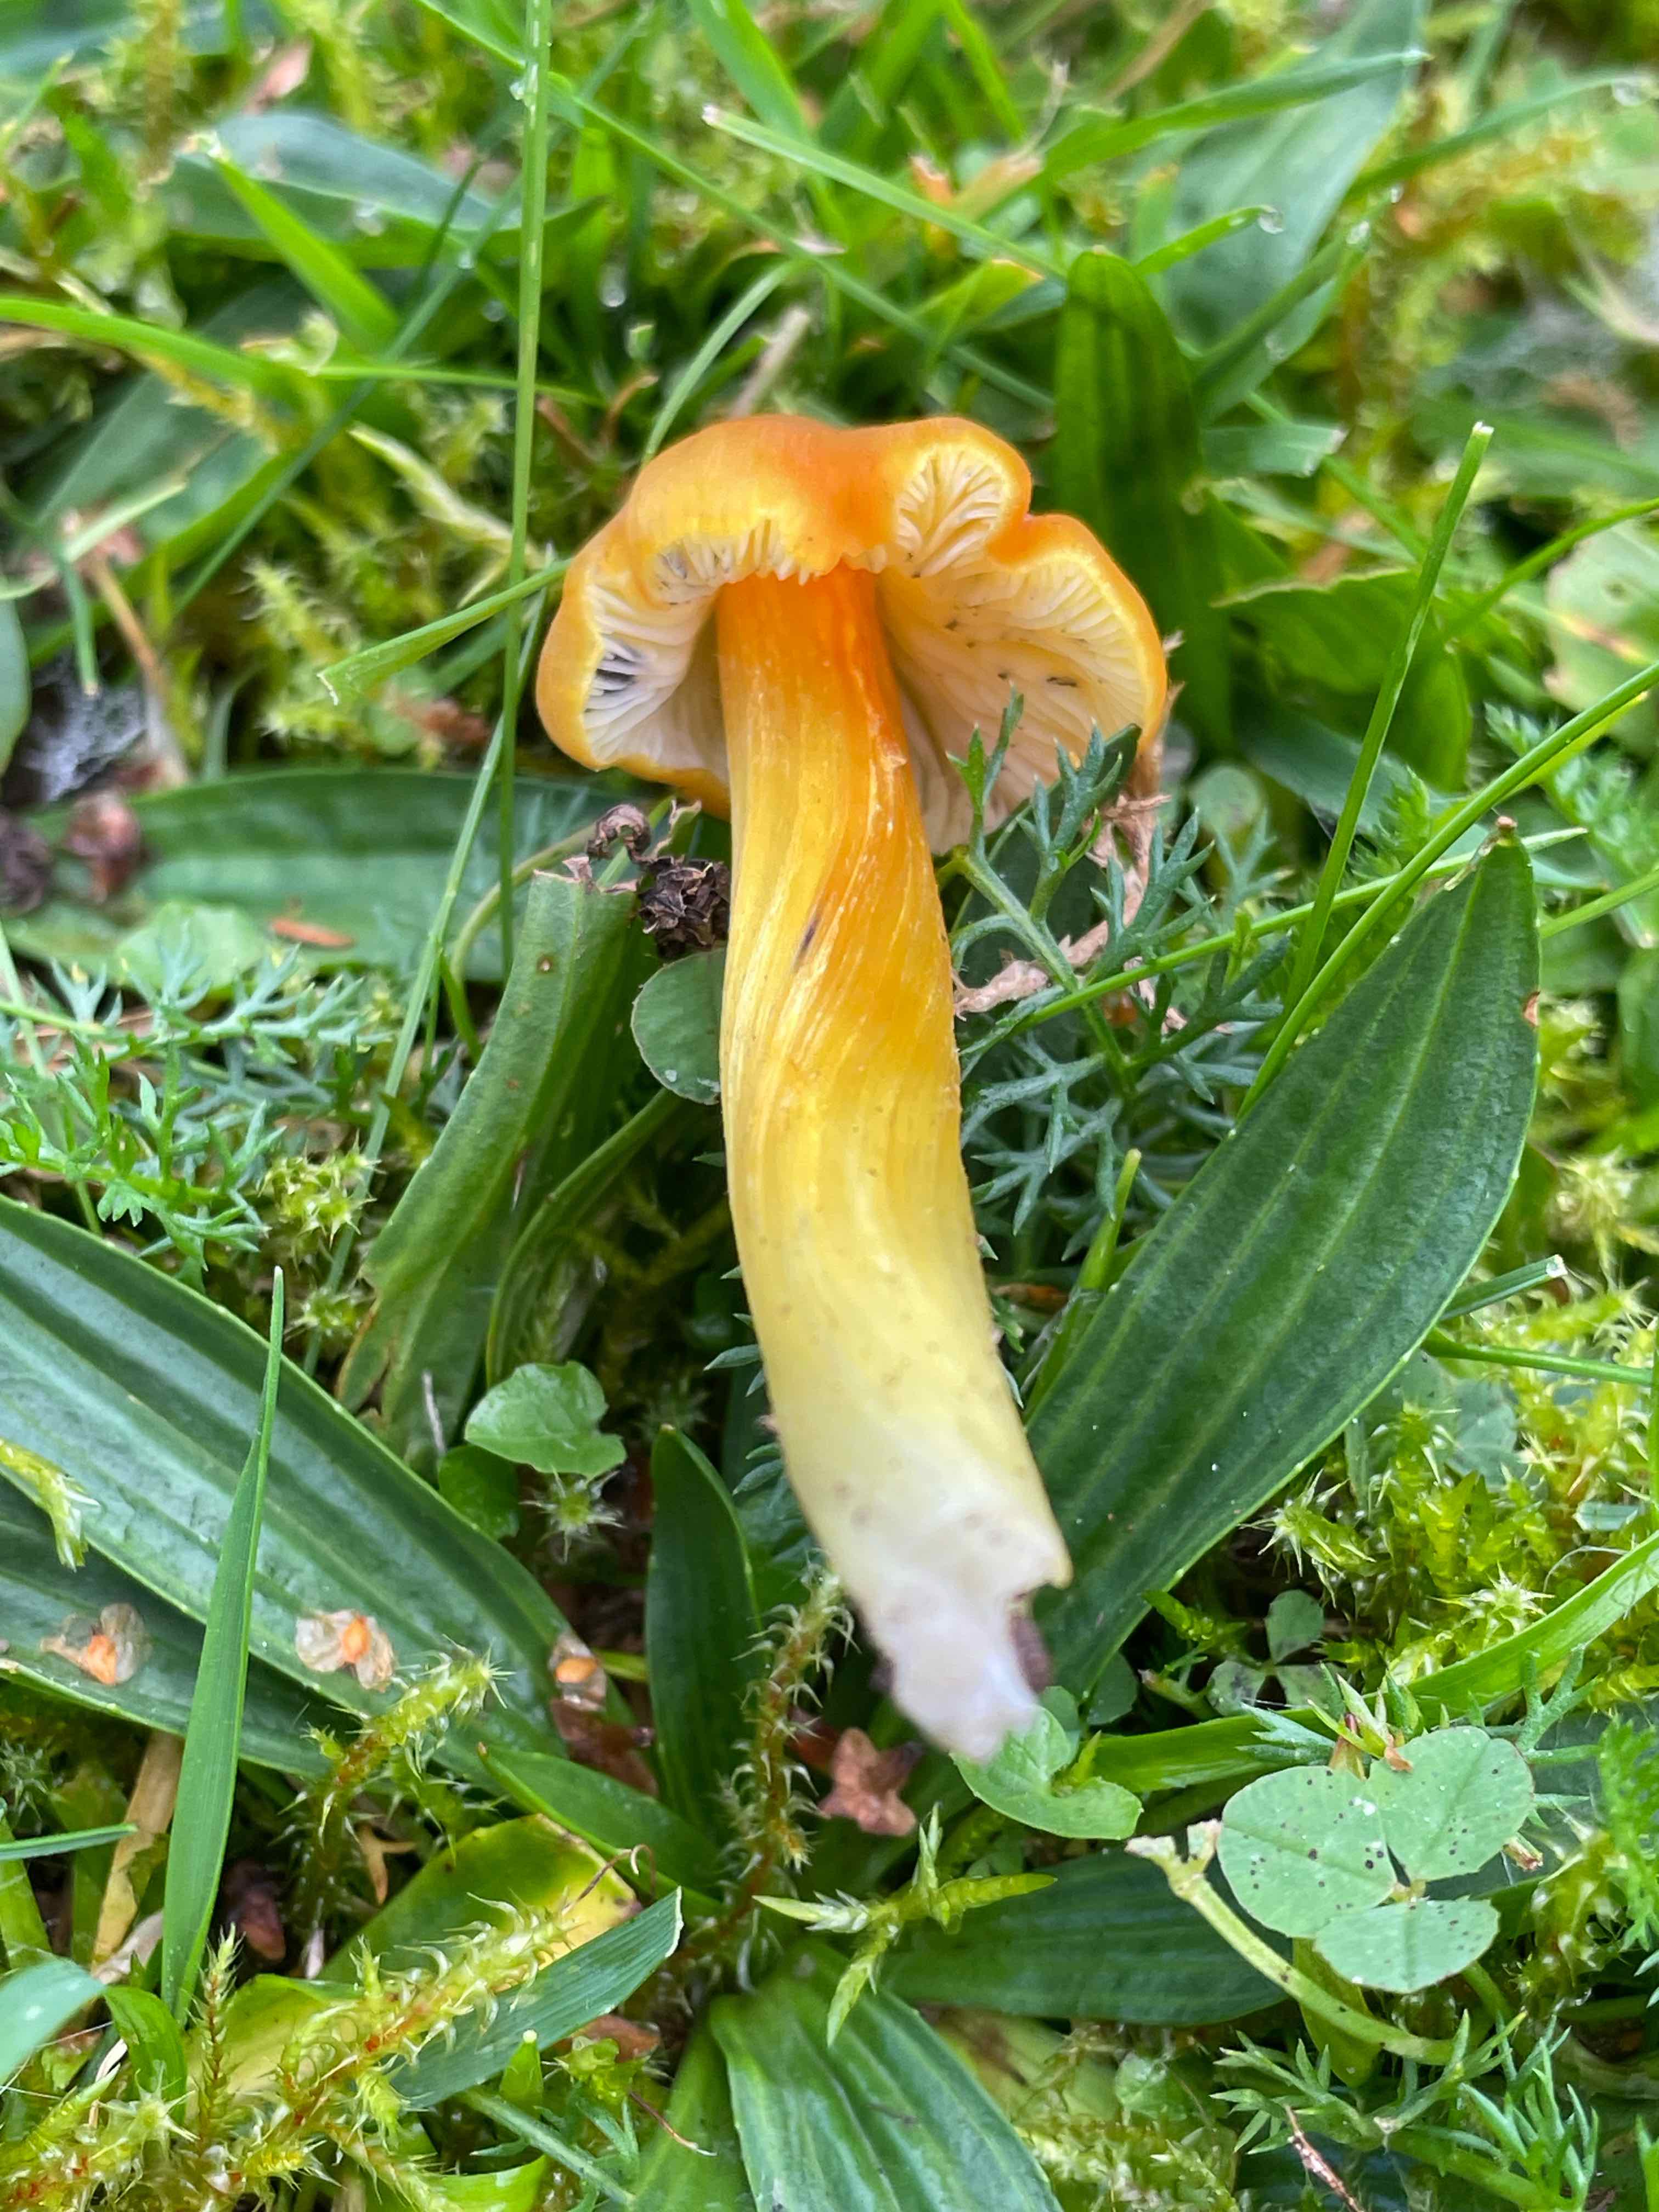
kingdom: Fungi
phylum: Basidiomycota
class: Agaricomycetes
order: Agaricales
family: Hygrophoraceae
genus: Hygrocybe
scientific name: Hygrocybe conica
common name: kegle-vokshat
